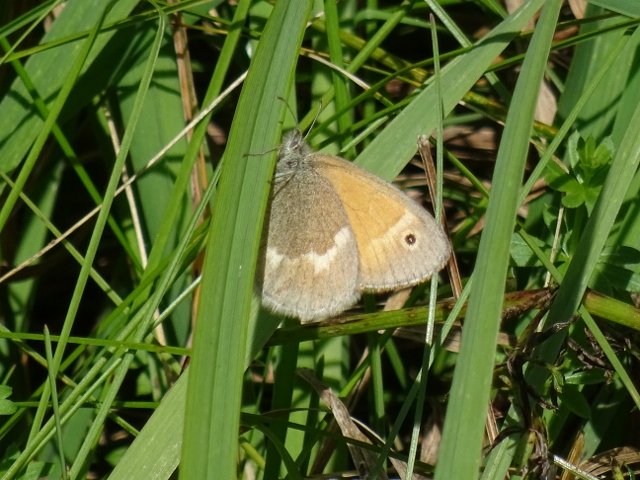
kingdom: Animalia
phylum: Arthropoda
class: Insecta
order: Lepidoptera
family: Nymphalidae
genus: Coenonympha
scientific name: Coenonympha tullia
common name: Large Heath
